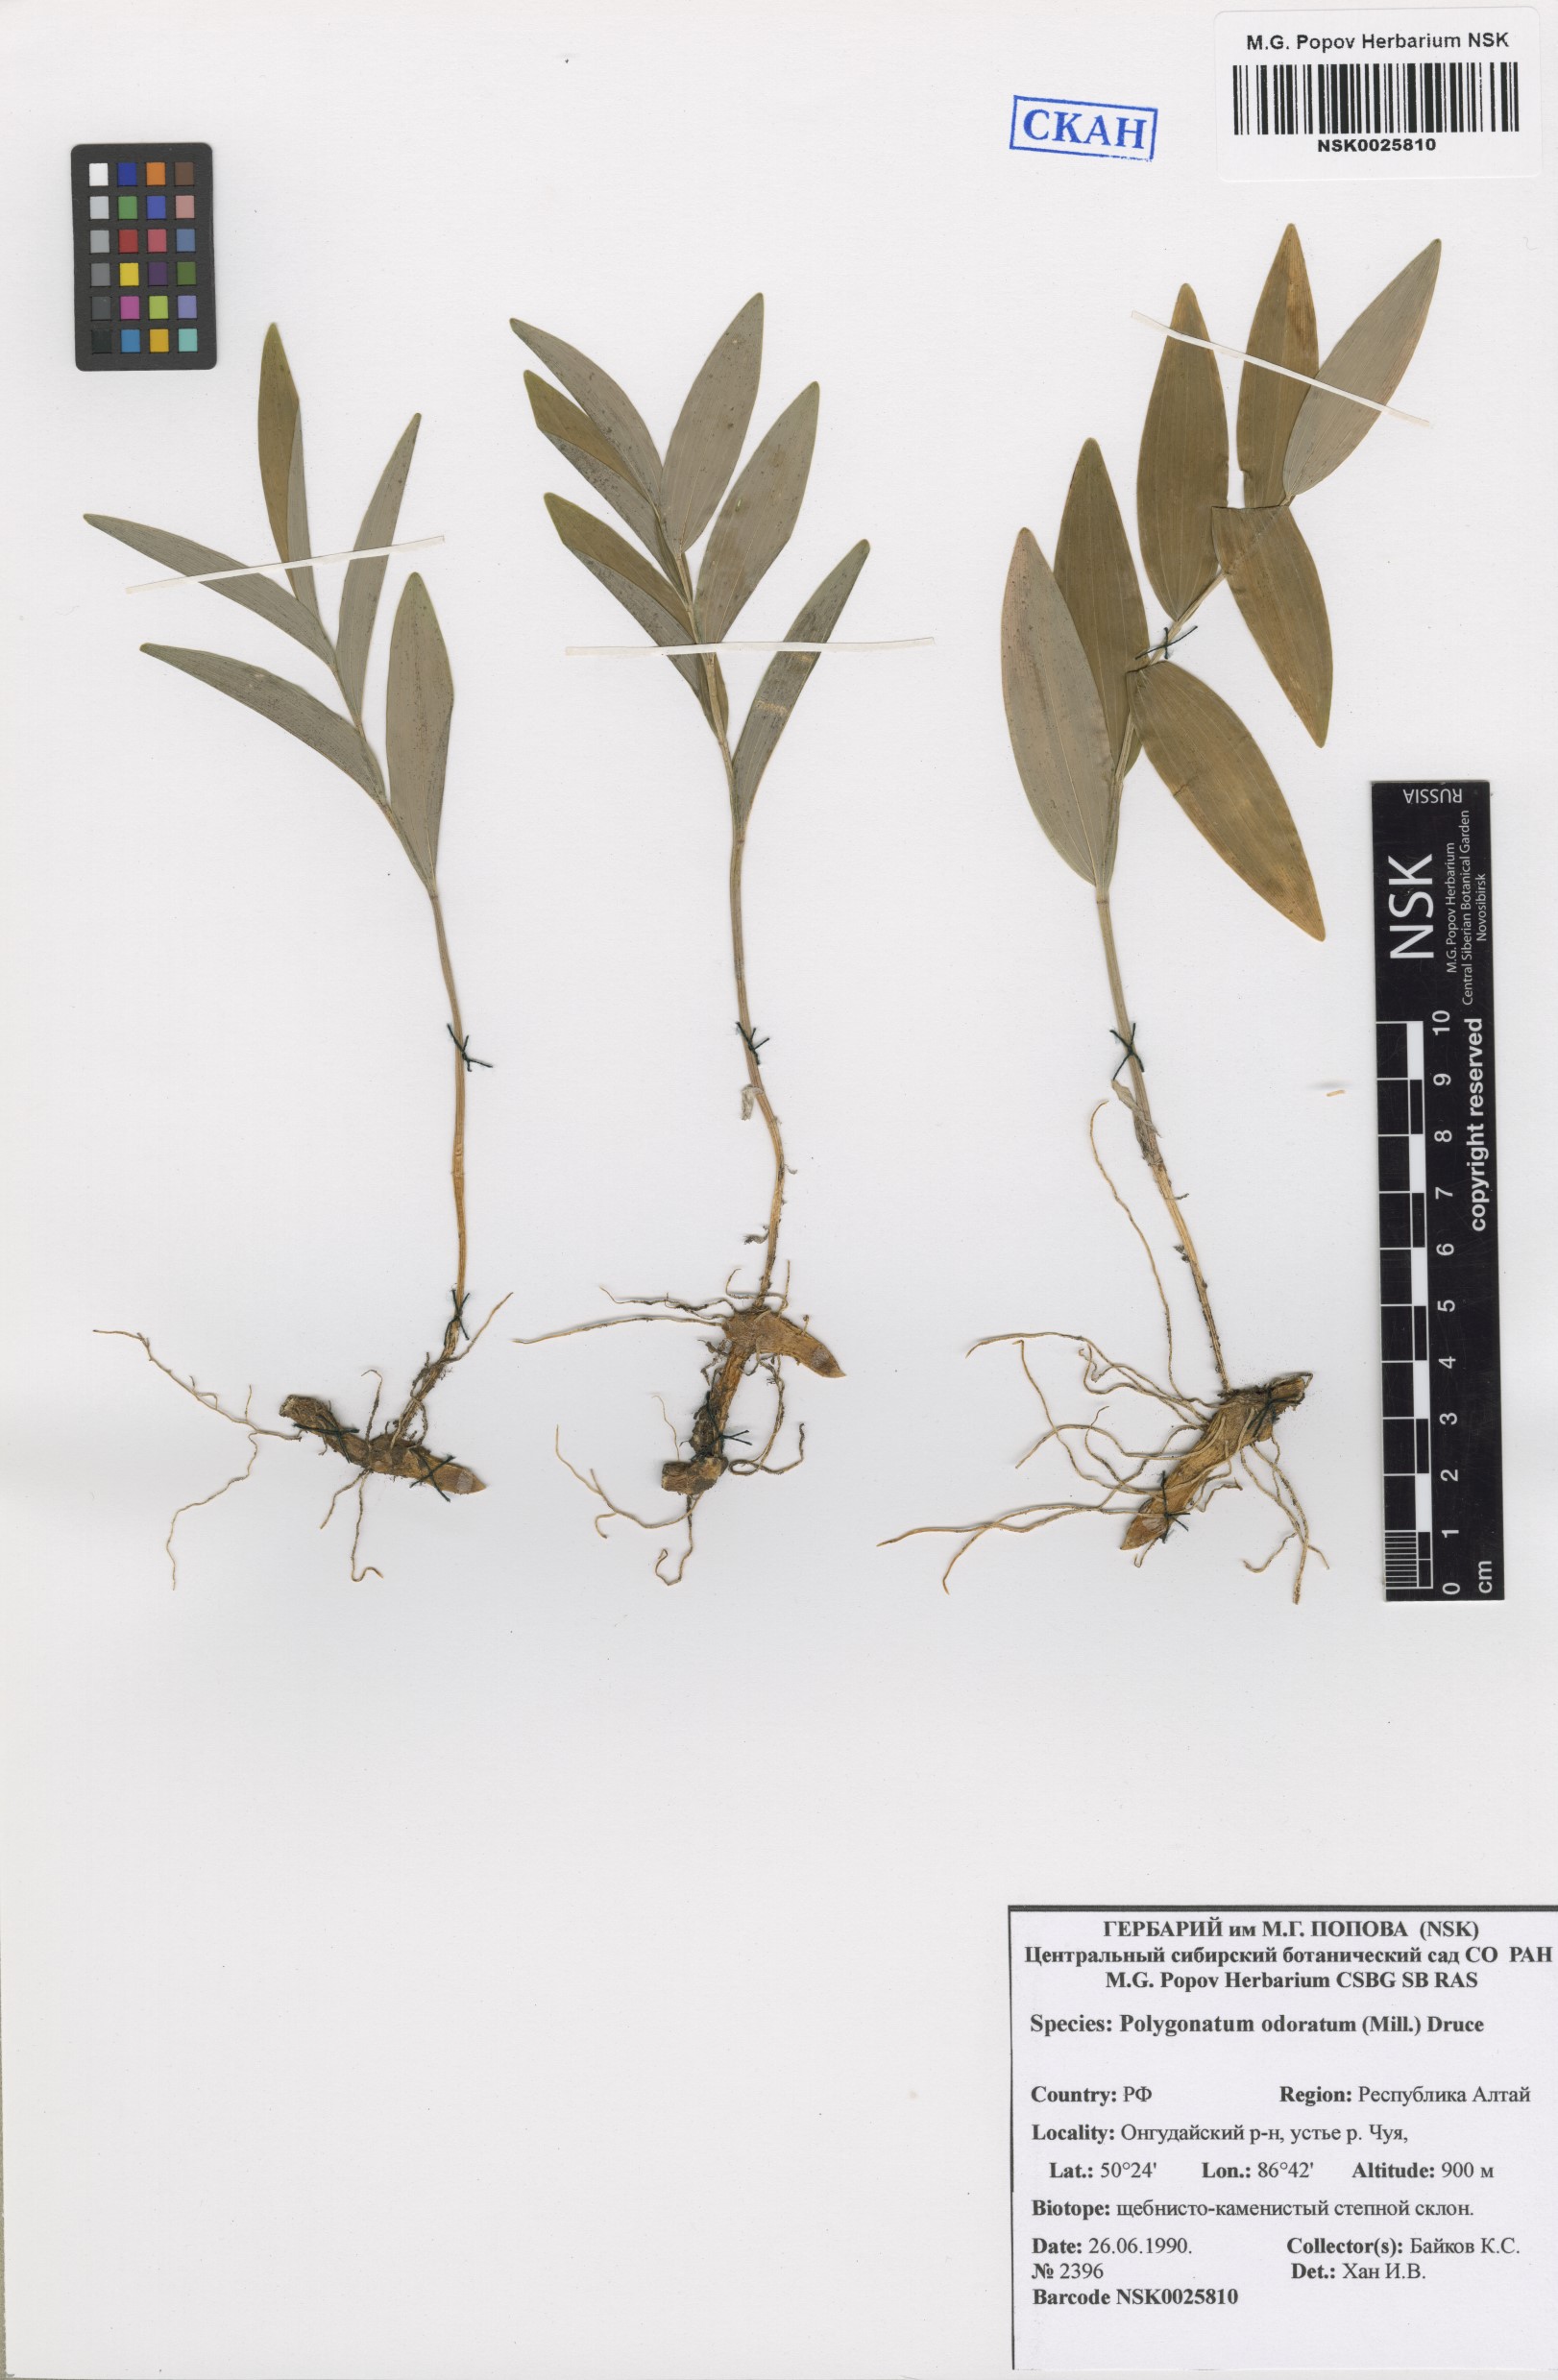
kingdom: Plantae
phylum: Tracheophyta
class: Liliopsida
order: Asparagales
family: Asparagaceae
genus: Polygonatum
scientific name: Polygonatum odoratum
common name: Angular solomon's-seal
